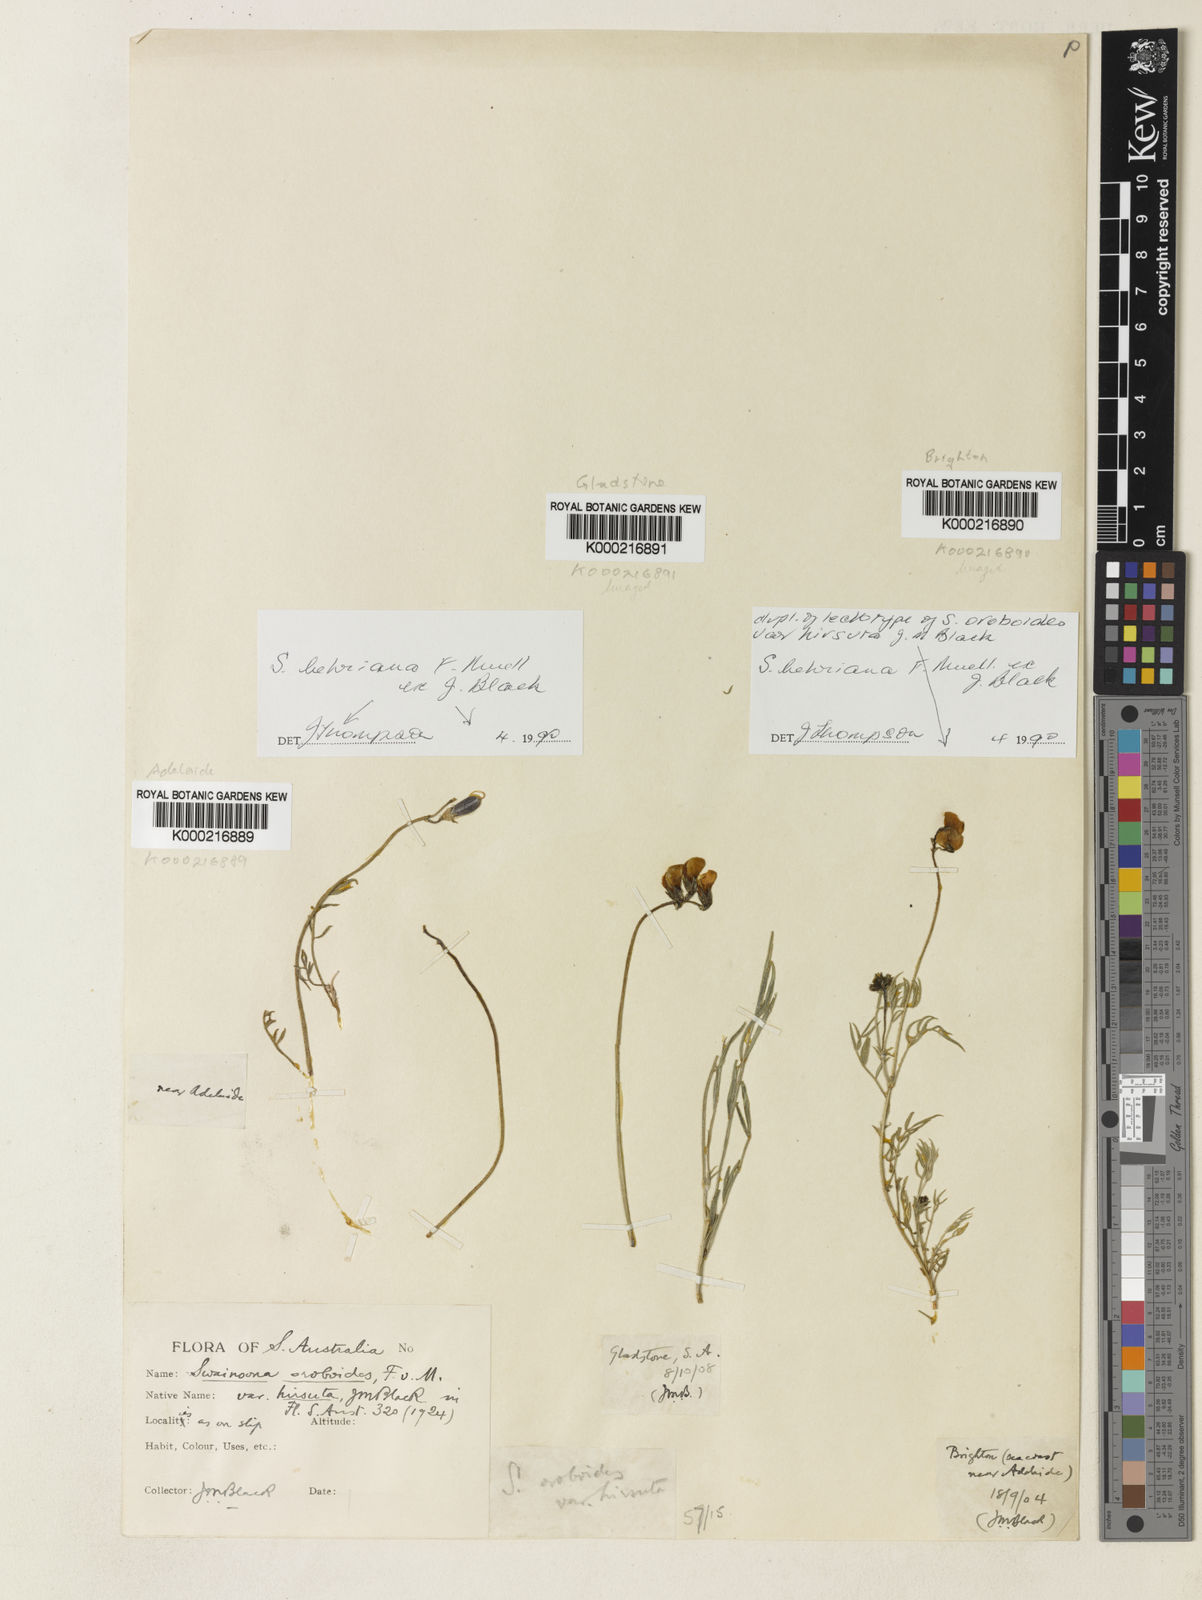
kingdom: Plantae
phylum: Tracheophyta
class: Magnoliopsida
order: Fabales
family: Fabaceae
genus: Swainsona
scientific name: Swainsona behriana
